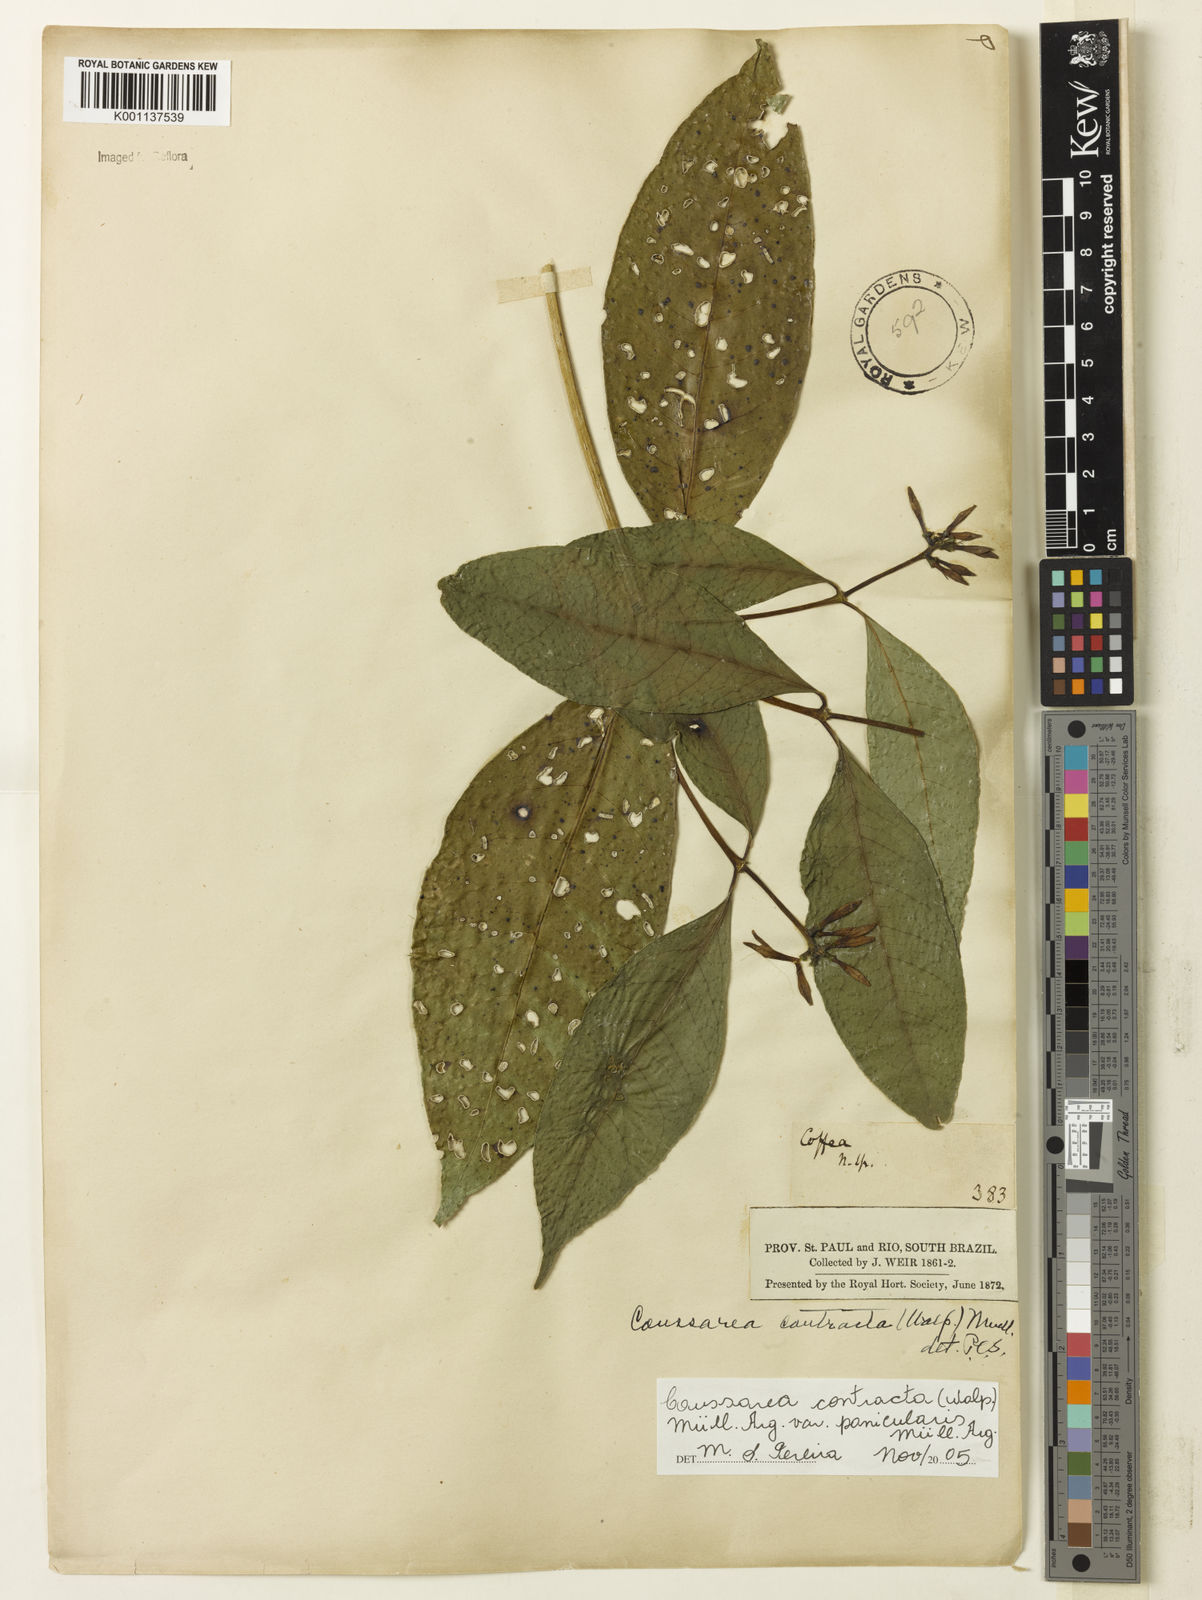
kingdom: Plantae
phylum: Tracheophyta
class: Magnoliopsida
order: Gentianales
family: Rubiaceae
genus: Coussarea
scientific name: Coussarea
